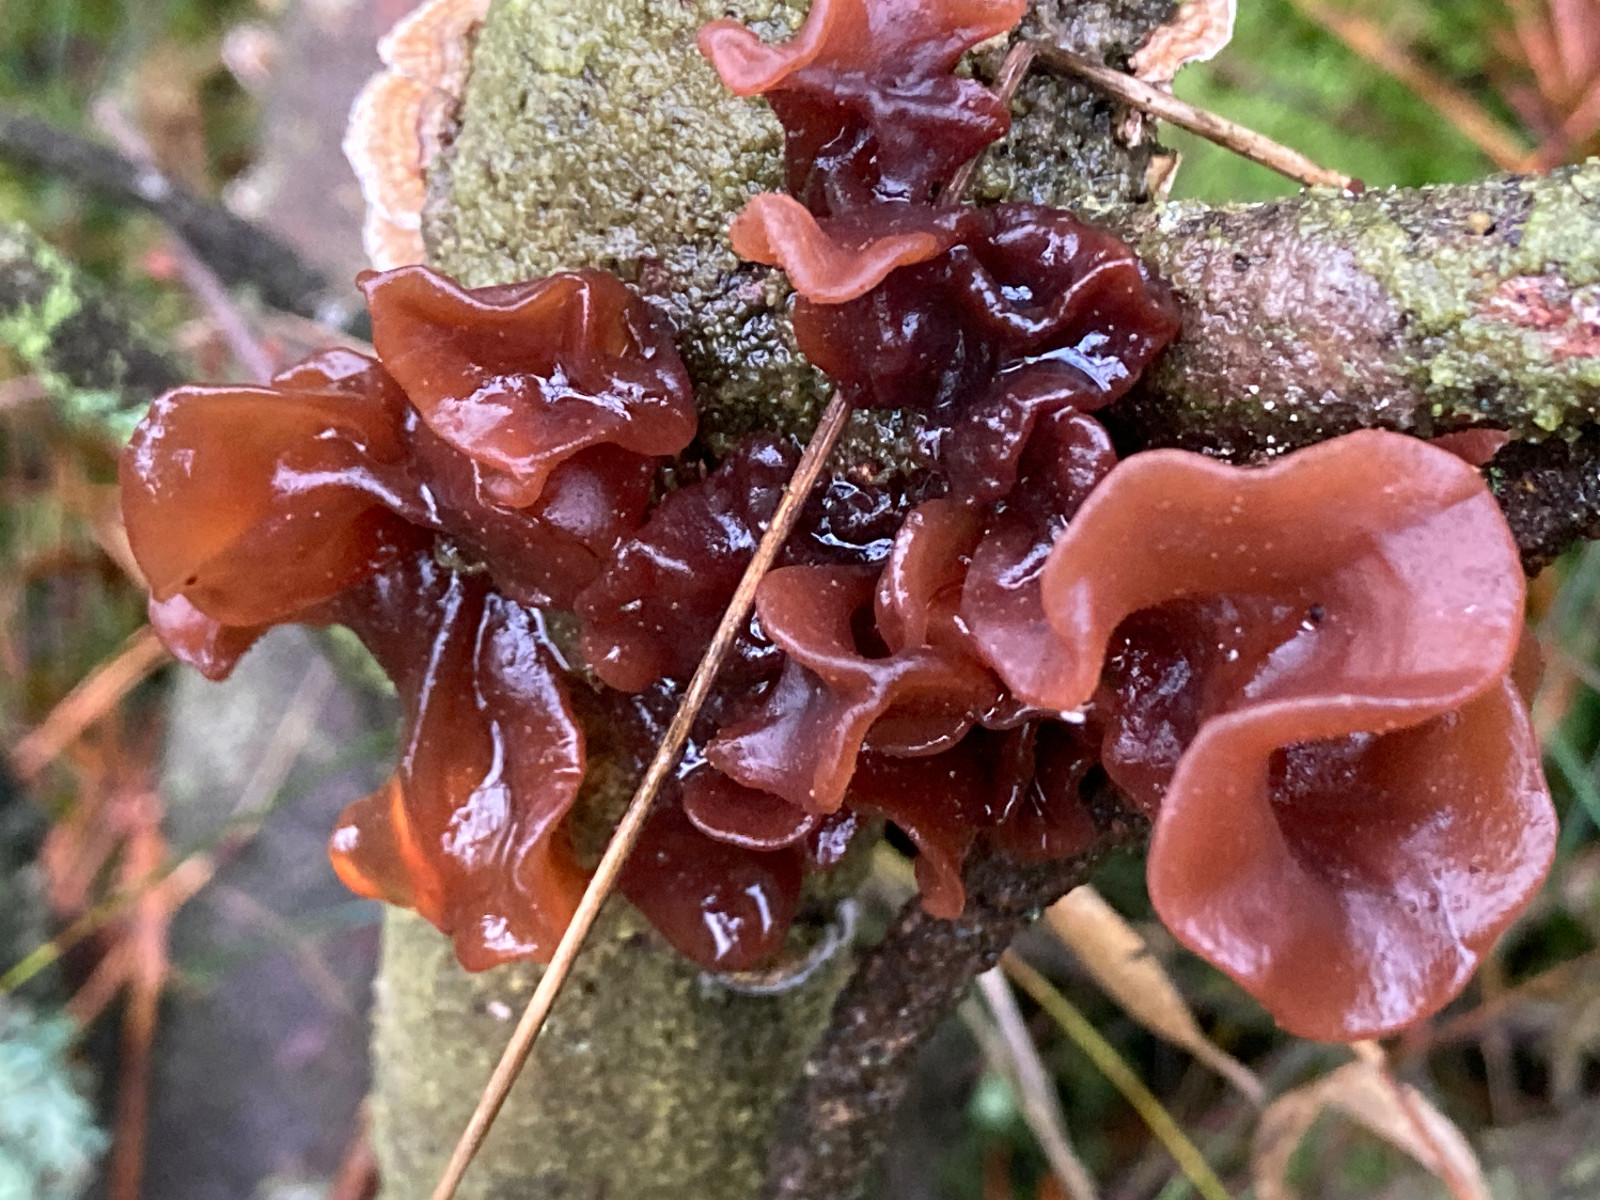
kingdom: Fungi
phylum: Basidiomycota
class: Tremellomycetes
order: Tremellales
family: Tremellaceae
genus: Phaeotremella
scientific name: Phaeotremella foliacea
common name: brun bævresvamp
